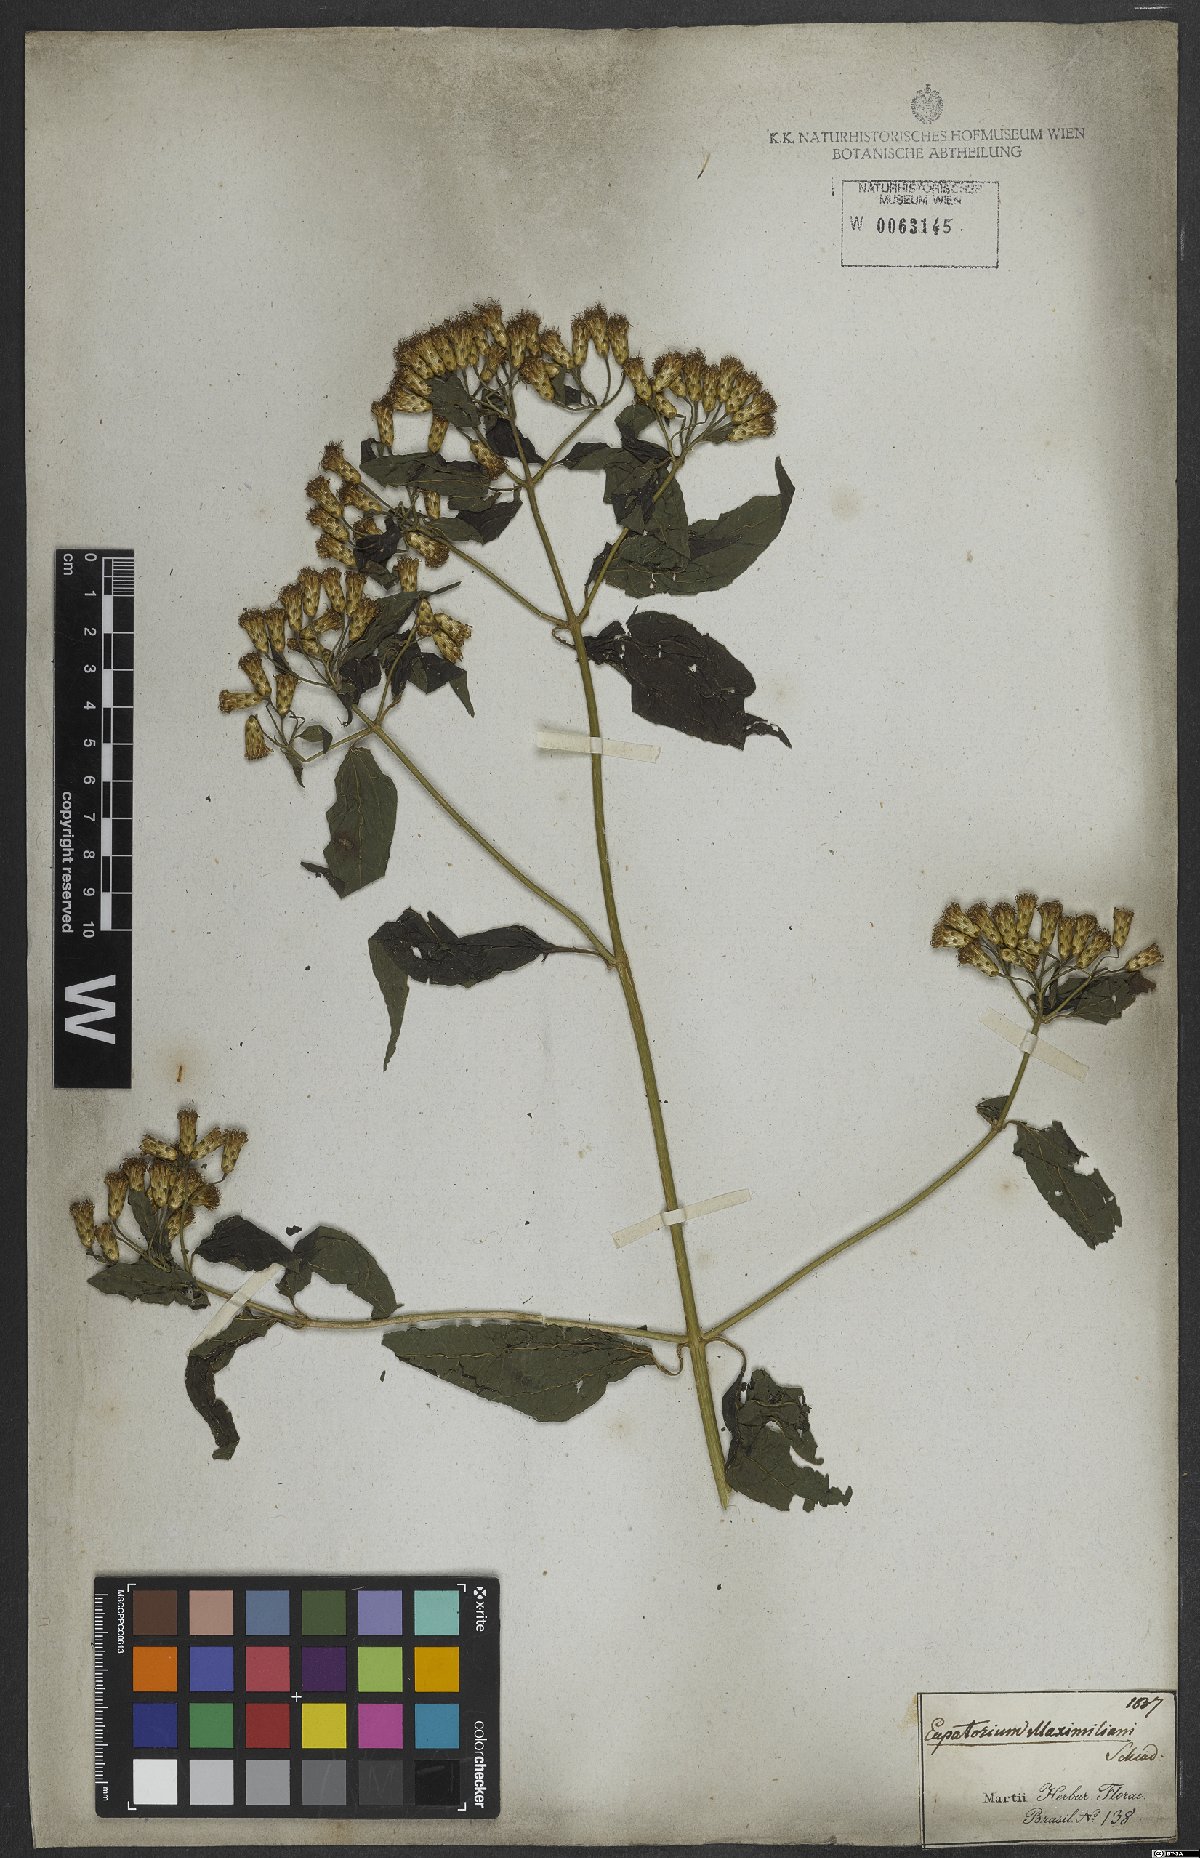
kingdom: Plantae
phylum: Tracheophyta
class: Magnoliopsida
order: Asterales
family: Asteraceae
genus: Chromolaena
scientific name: Chromolaena odorata
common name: Siamweed
